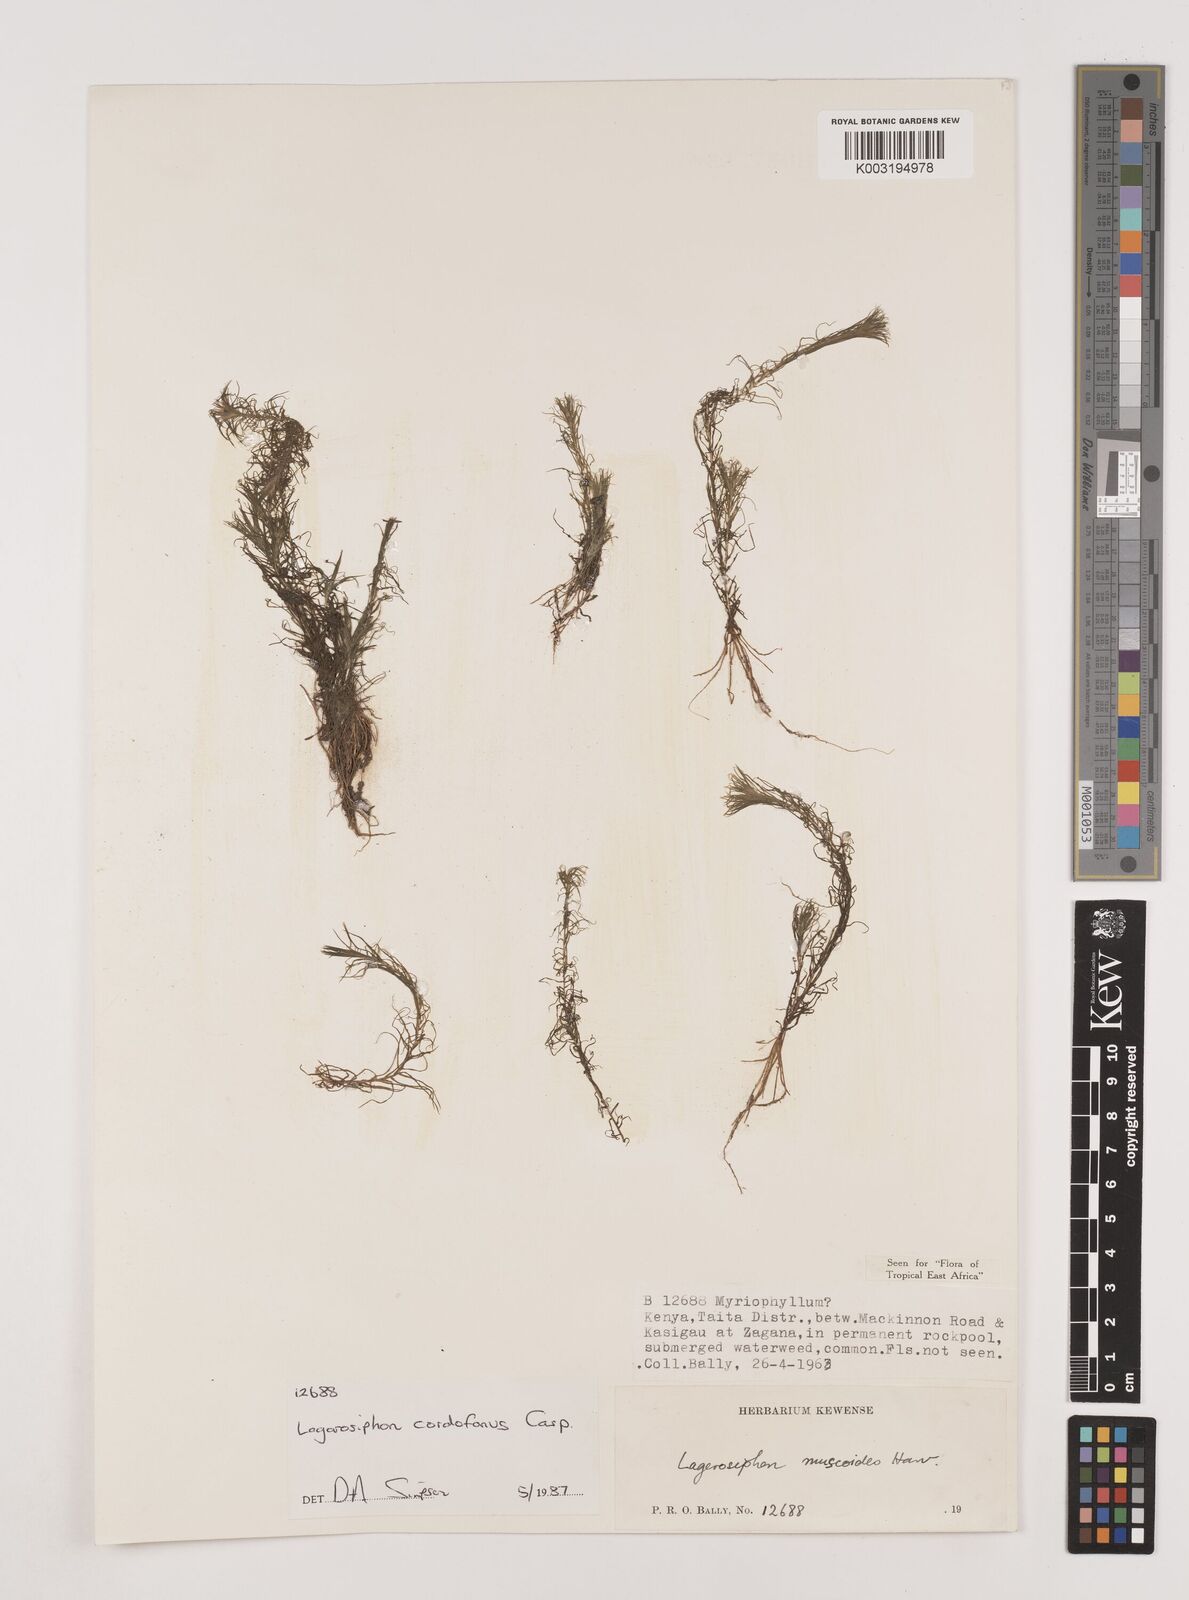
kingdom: Plantae
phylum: Tracheophyta
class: Liliopsida
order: Alismatales
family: Hydrocharitaceae
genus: Lagarosiphon
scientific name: Lagarosiphon cordofanus
